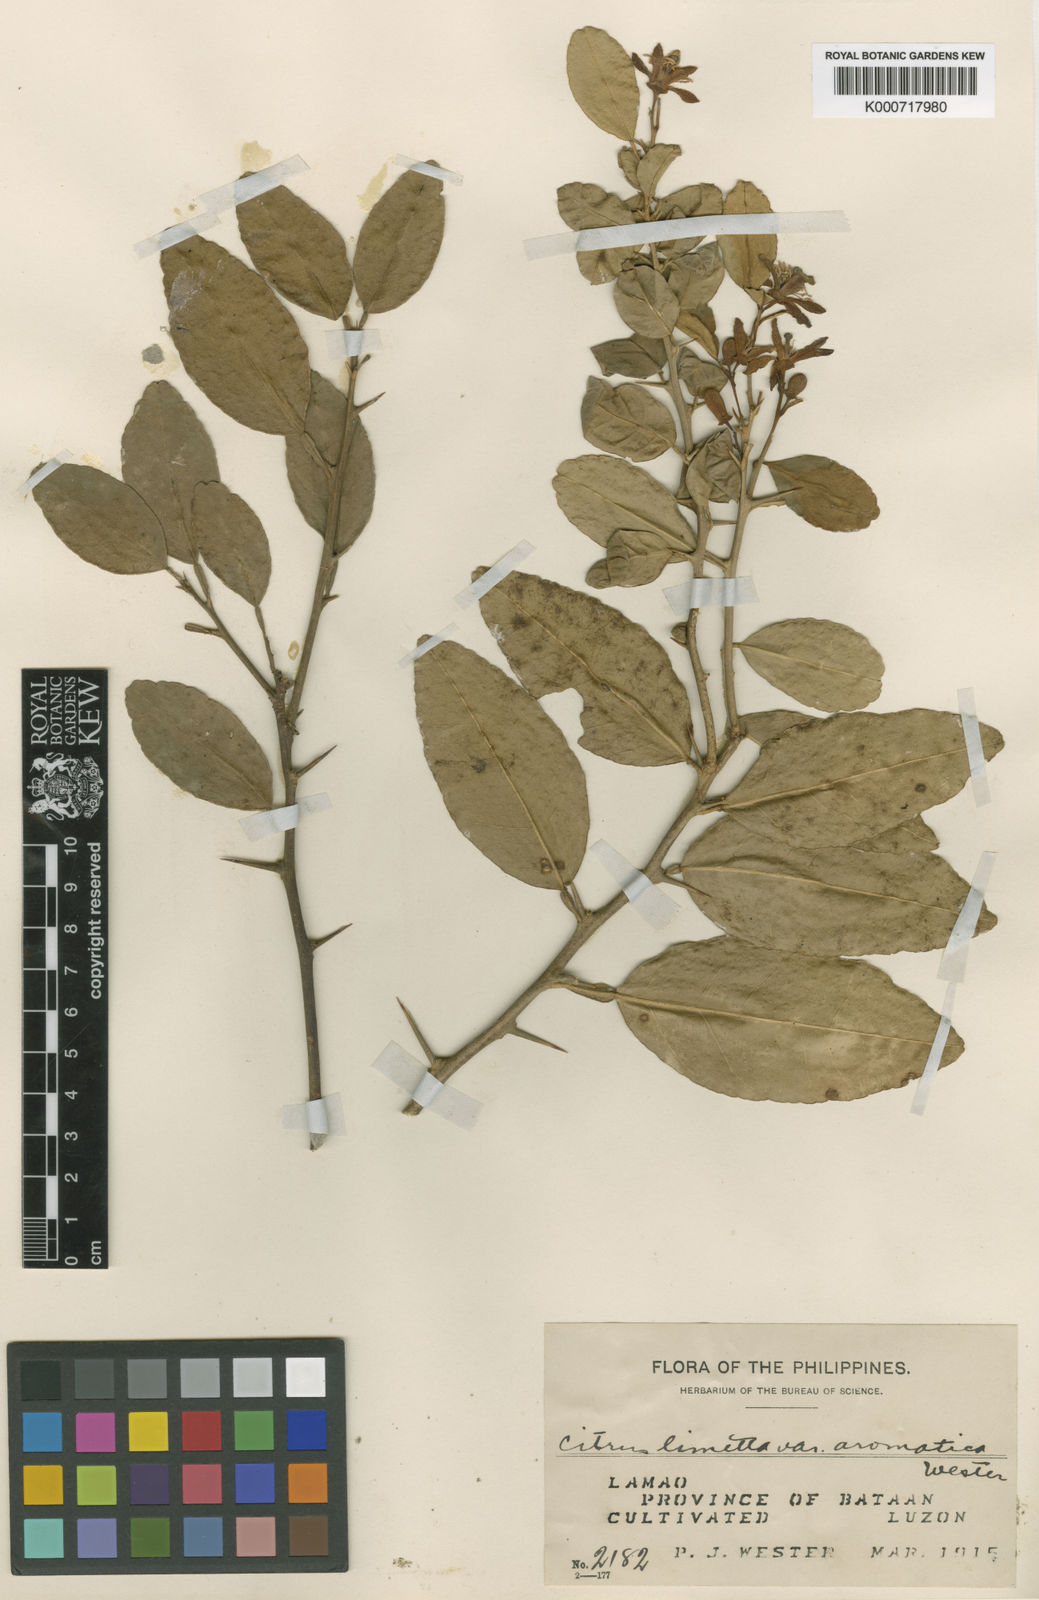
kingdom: Plantae
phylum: Tracheophyta
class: Magnoliopsida
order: Sapindales
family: Rutaceae
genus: Citrus
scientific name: Citrus
